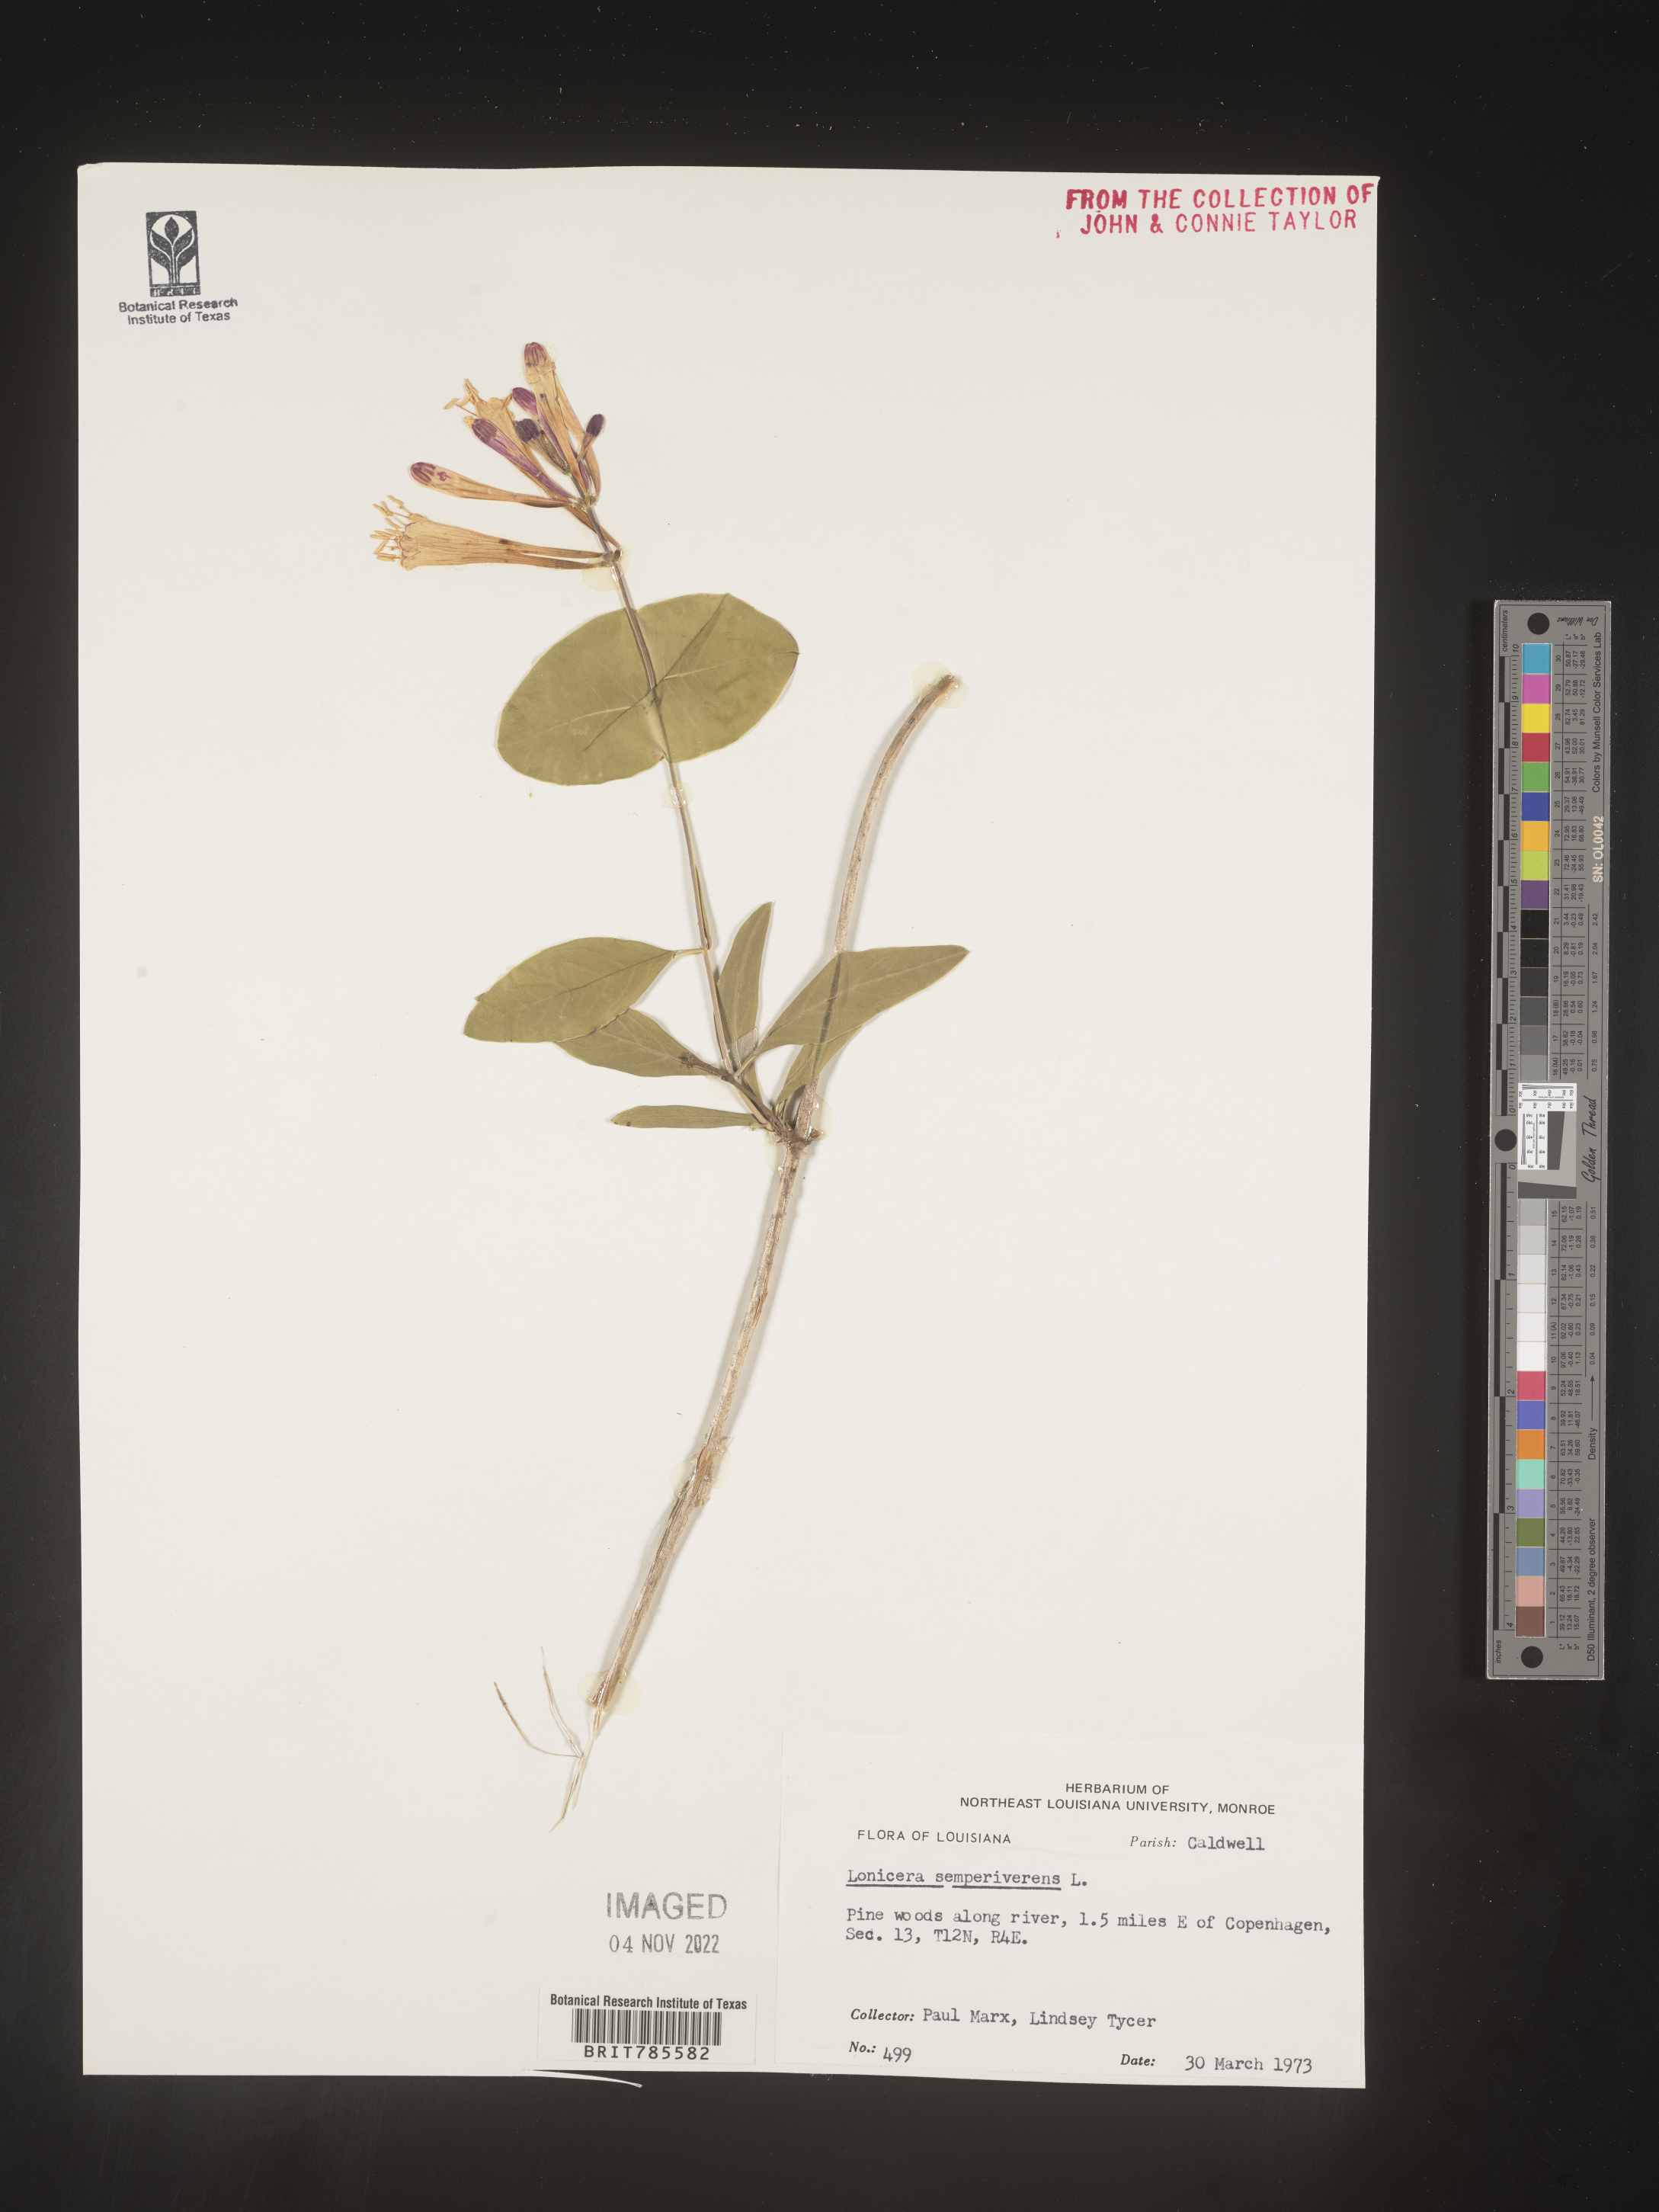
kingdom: Plantae
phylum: Tracheophyta
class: Magnoliopsida
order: Dipsacales
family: Caprifoliaceae
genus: Lonicera
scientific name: Lonicera sempervirens
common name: Coral honeysuckle
